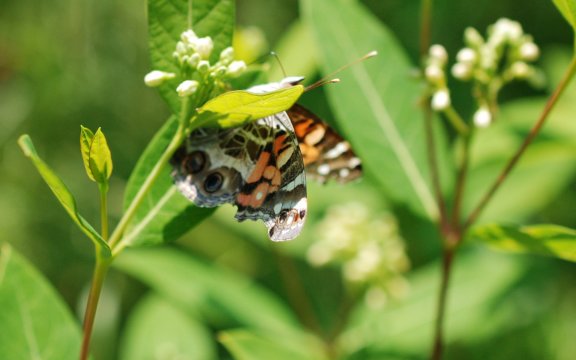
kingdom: Animalia
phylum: Arthropoda
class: Insecta
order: Lepidoptera
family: Nymphalidae
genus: Vanessa
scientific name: Vanessa virginiensis
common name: American Lady
